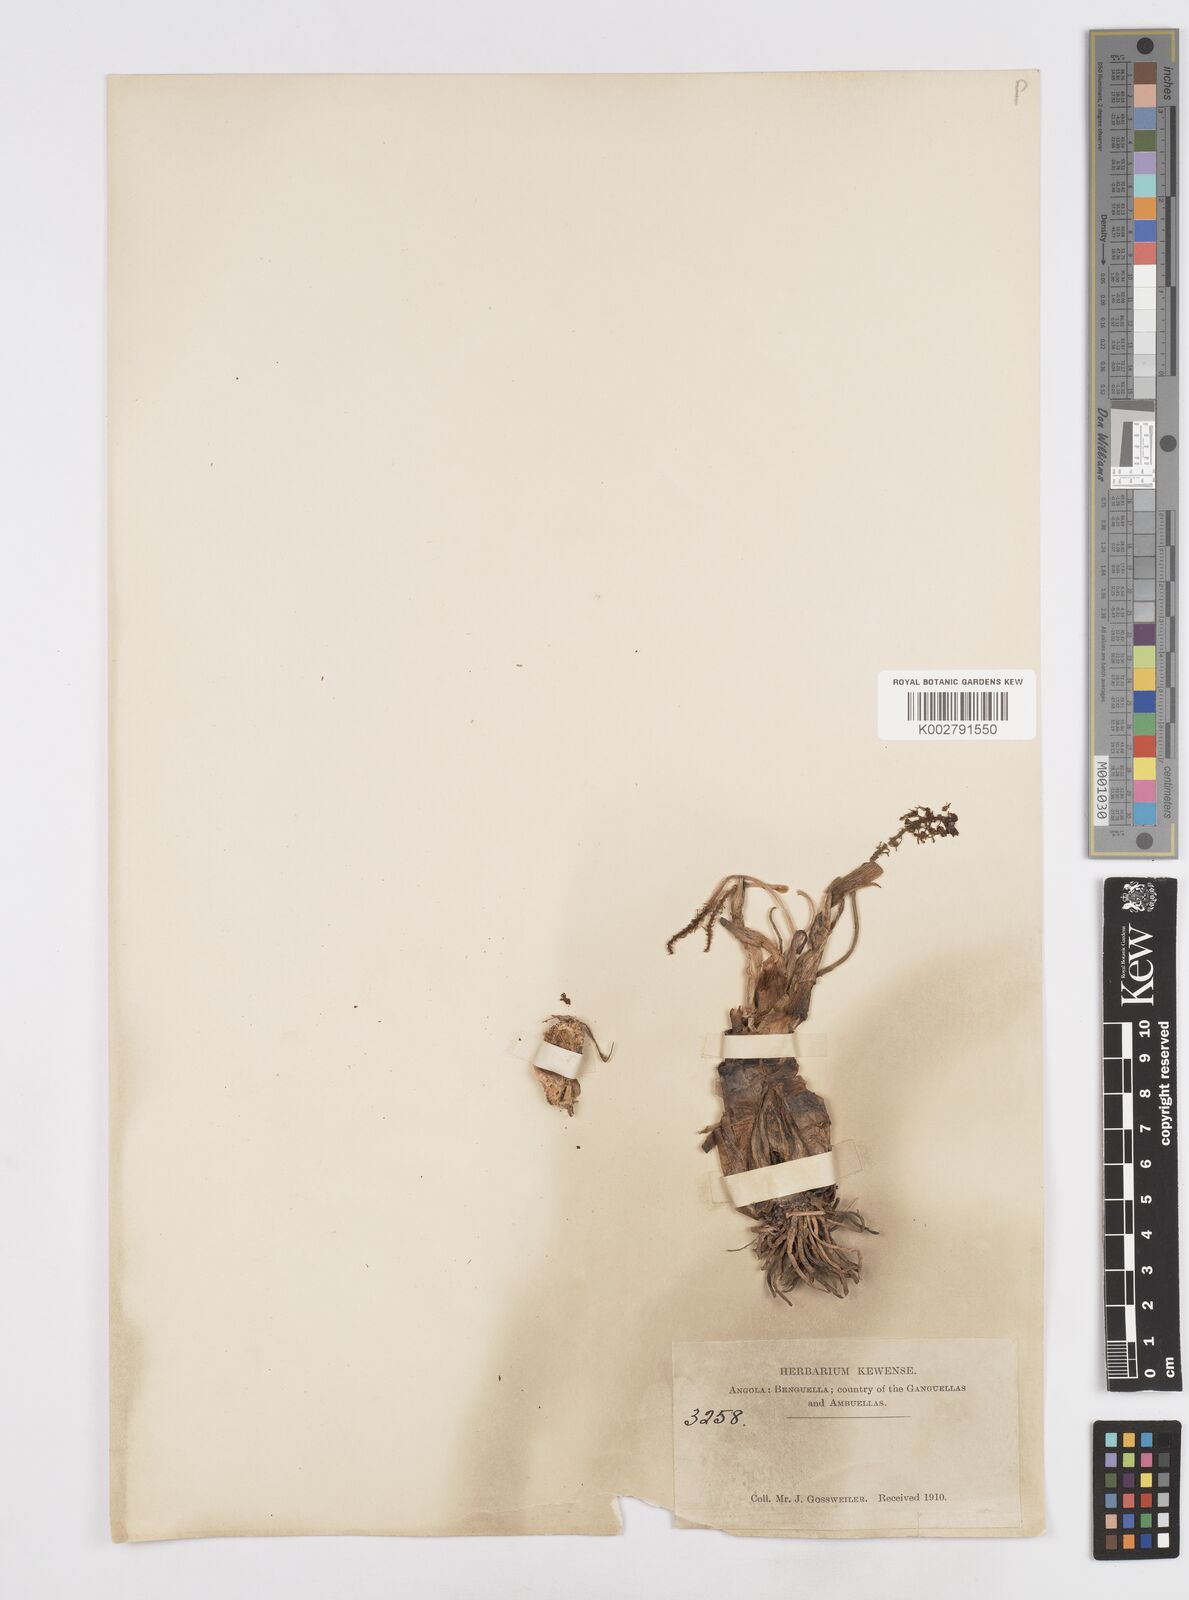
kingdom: Plantae
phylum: Tracheophyta
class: Liliopsida
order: Asparagales
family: Asparagaceae
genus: Scilla
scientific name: Scilla
